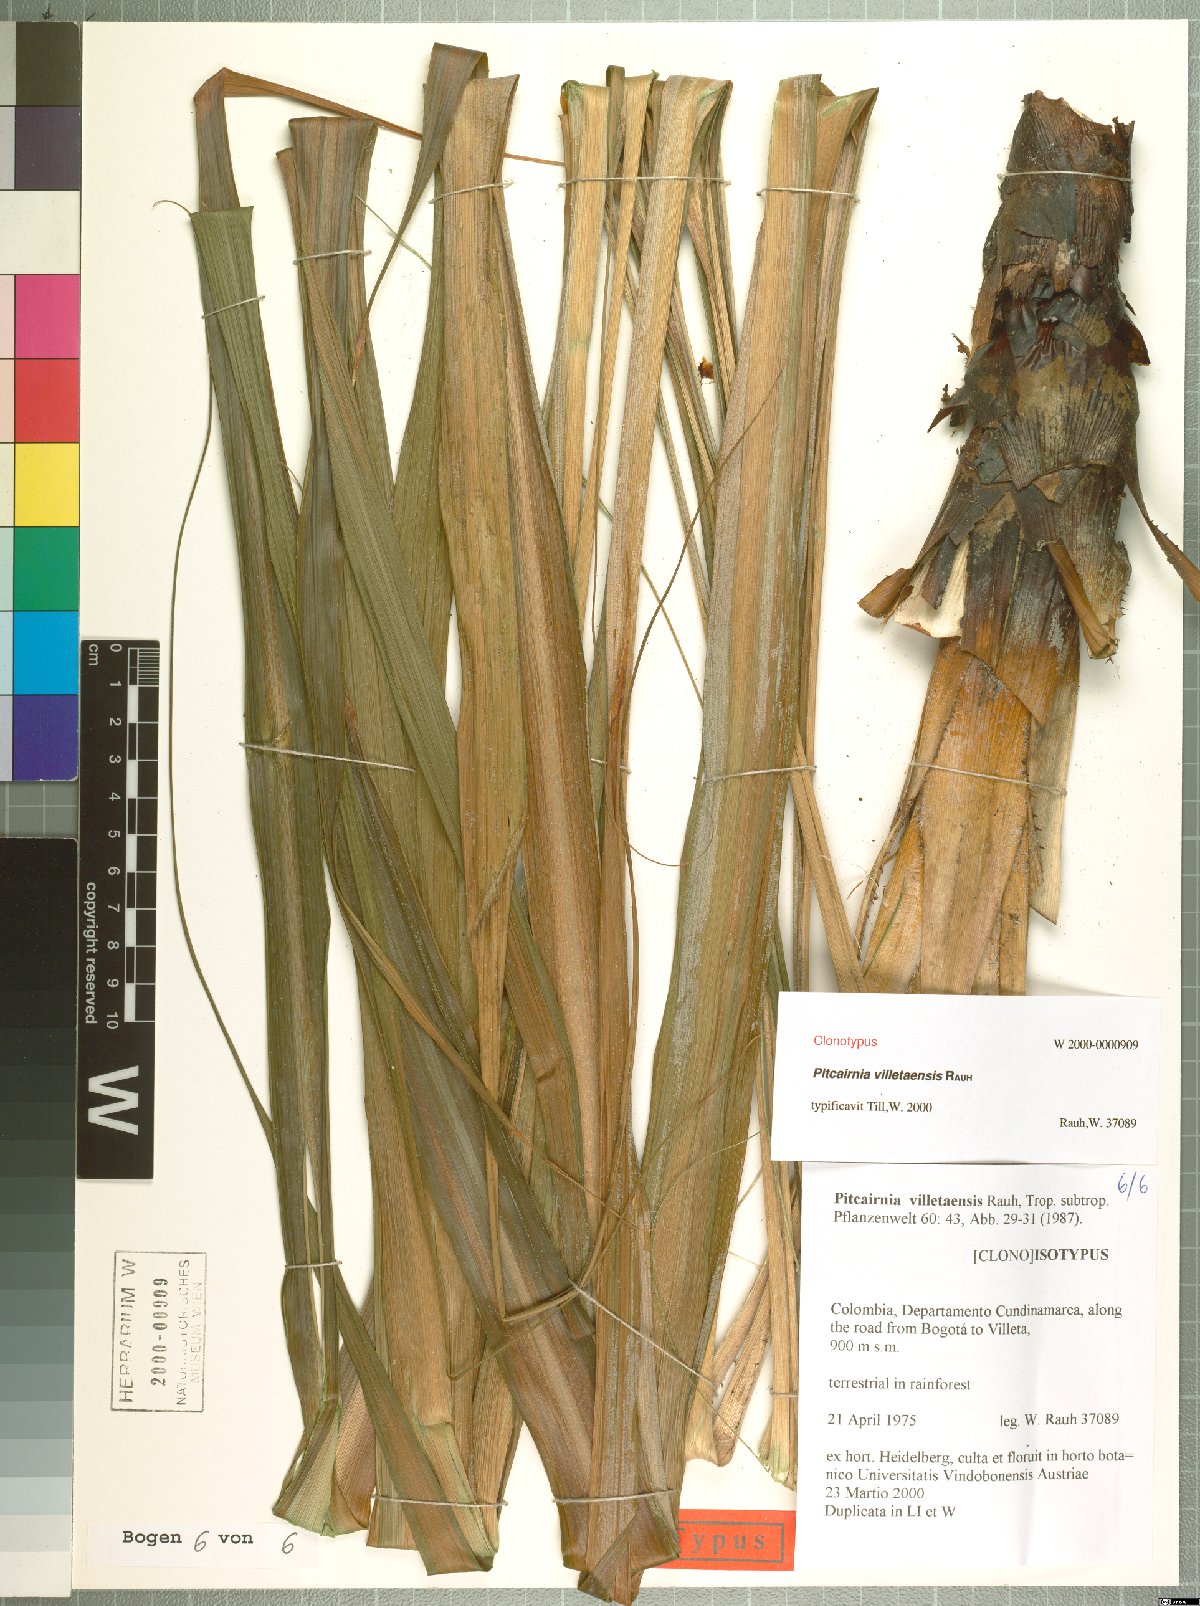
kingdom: Plantae
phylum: Tracheophyta
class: Liliopsida
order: Poales
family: Bromeliaceae
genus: Pitcairnia
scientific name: Pitcairnia villetaensis
